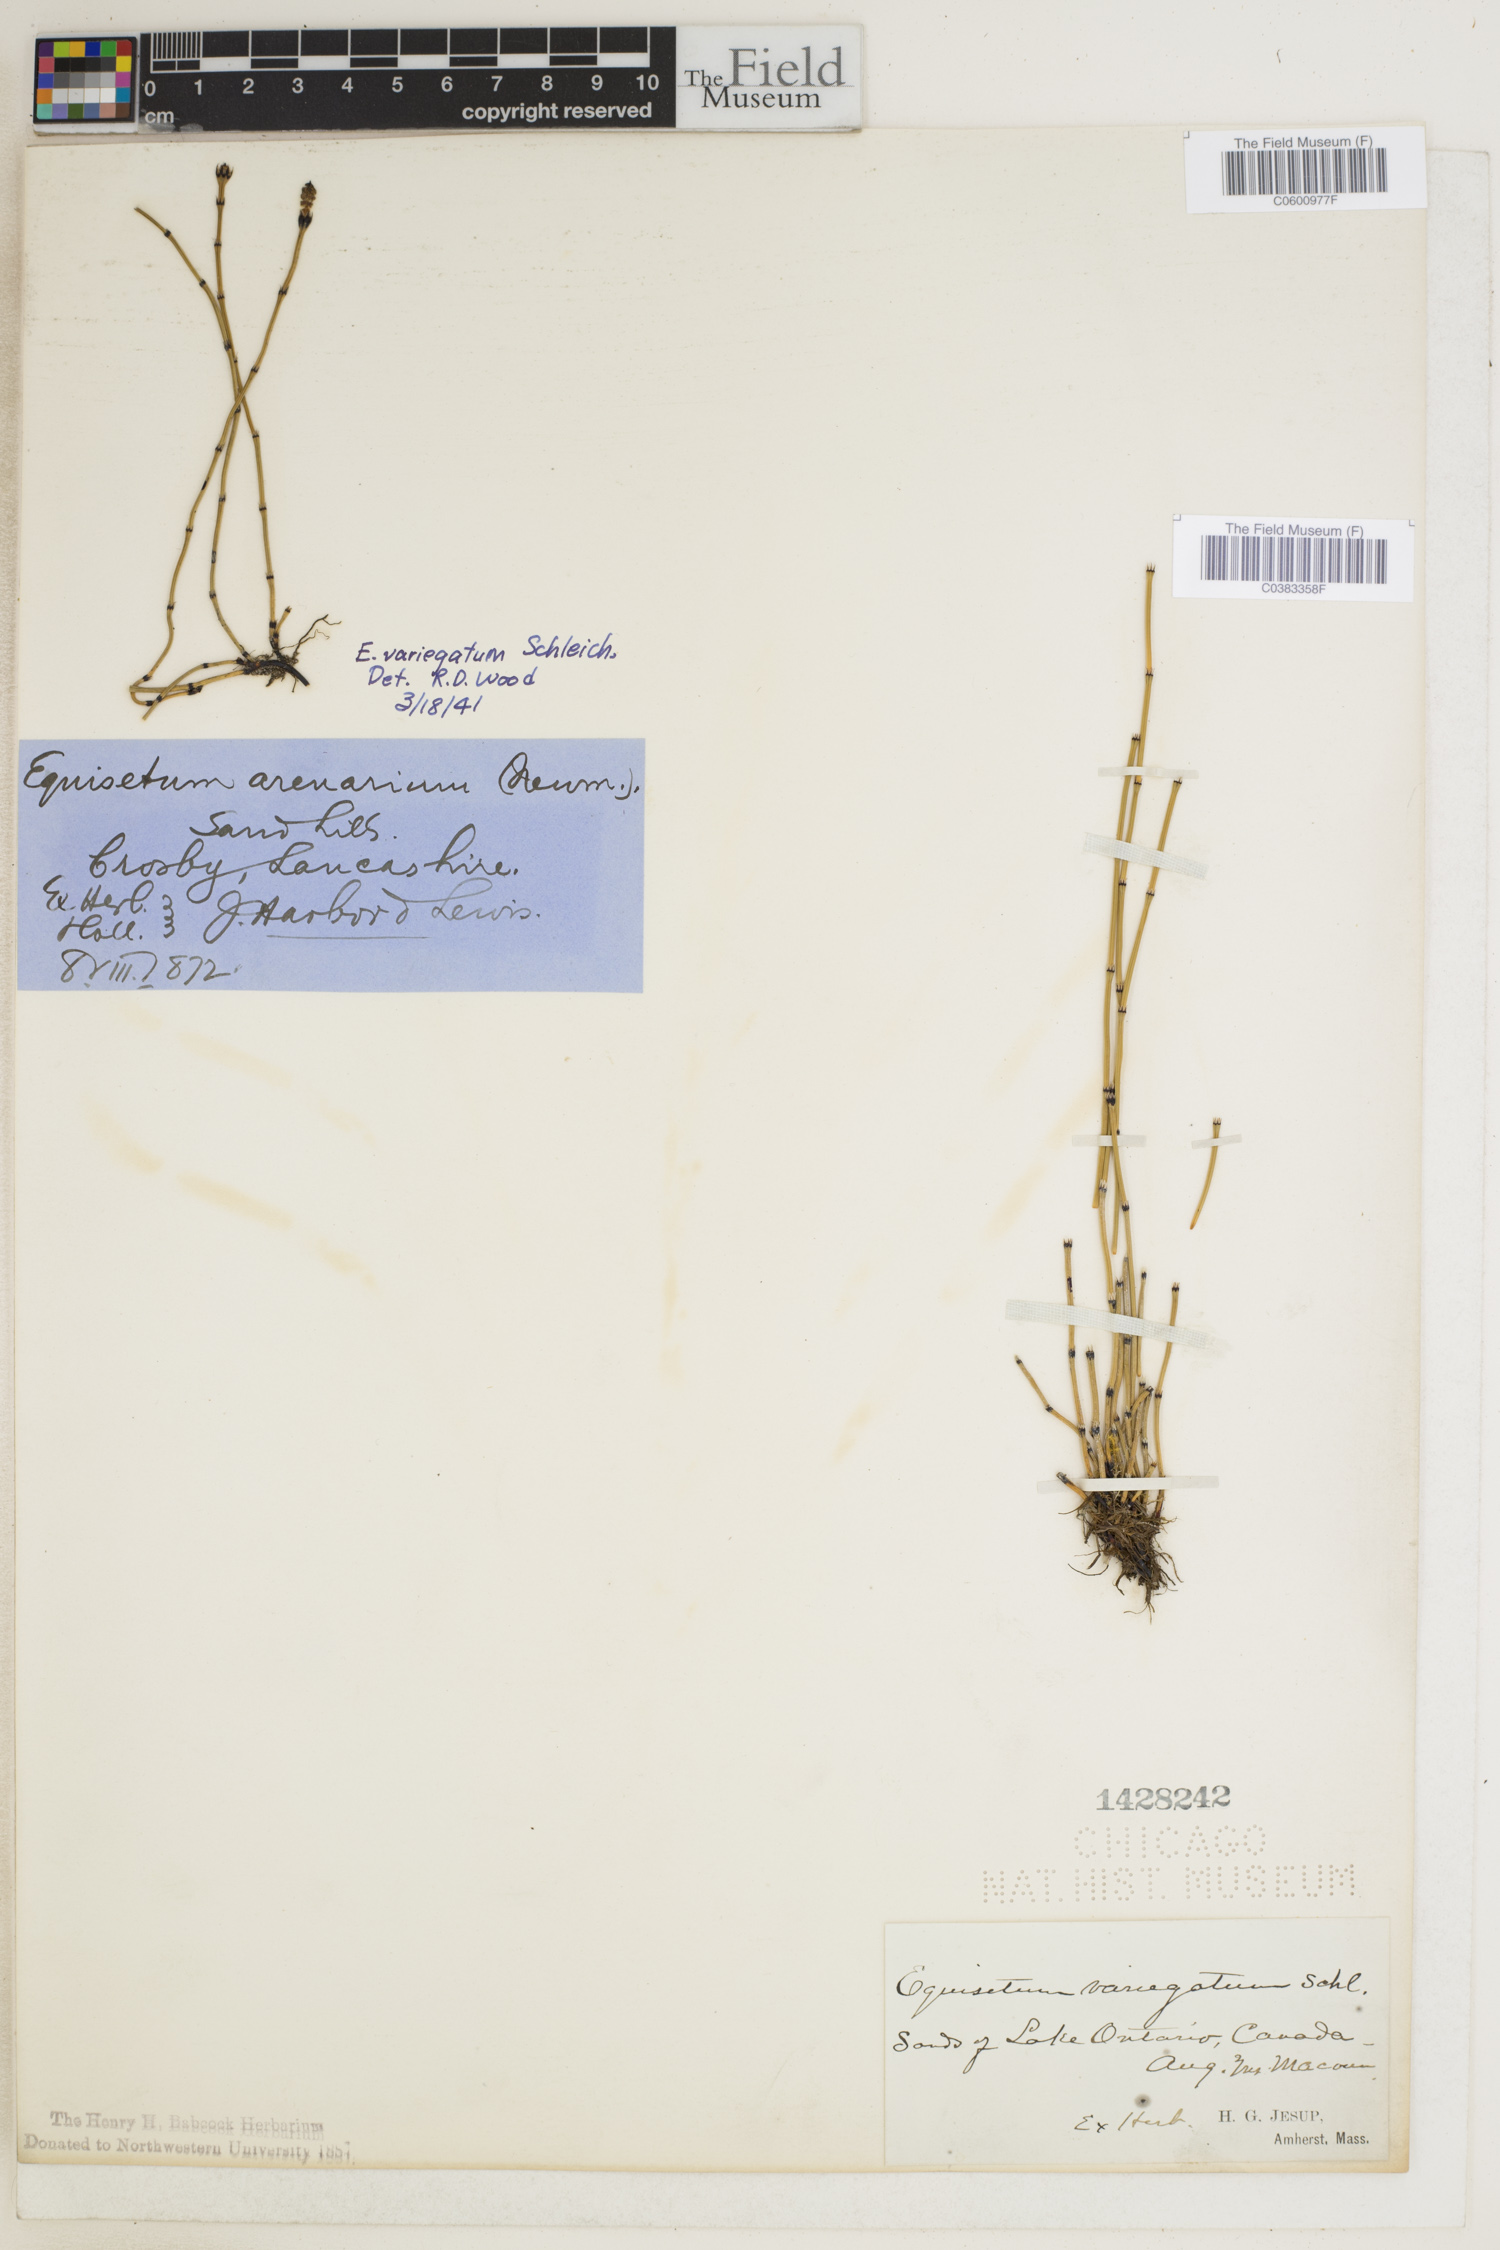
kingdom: Plantae
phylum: Tracheophyta
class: Polypodiopsida
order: Equisetales
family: Equisetaceae
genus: Equisetum
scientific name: Equisetum variegatum
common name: Variegated horsetail
